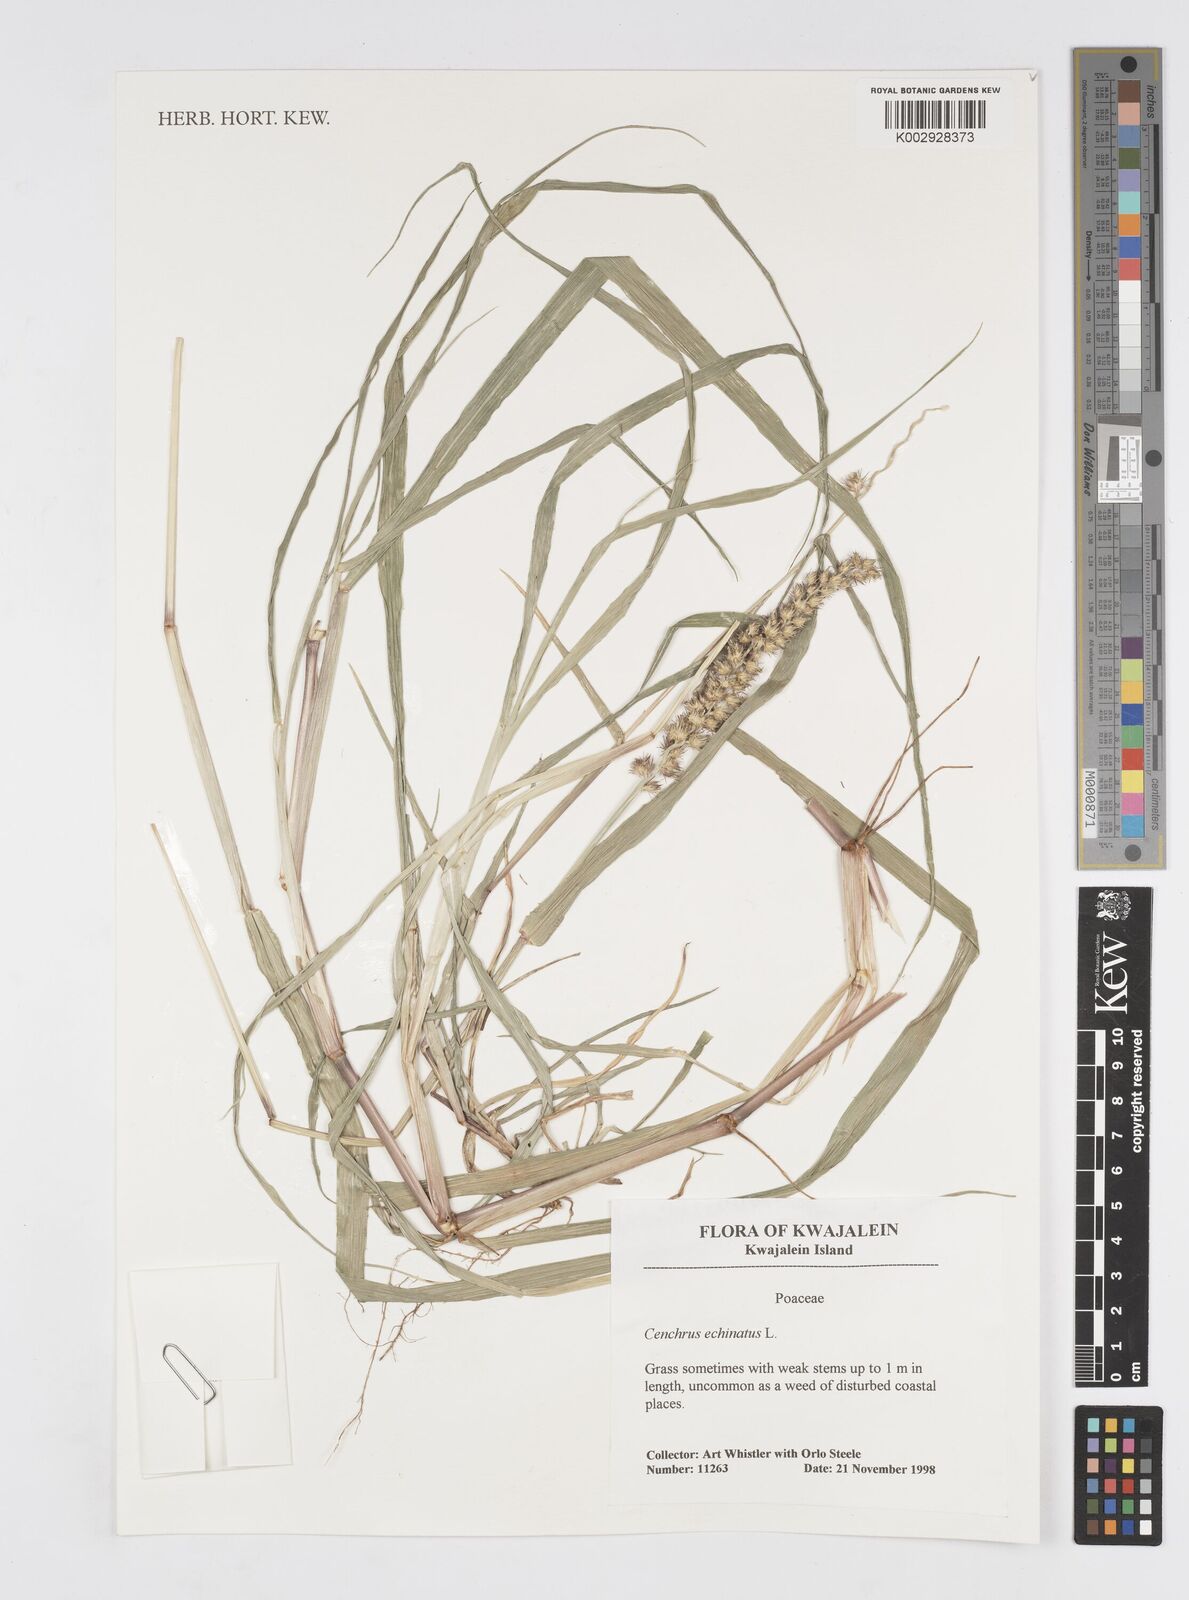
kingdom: Plantae
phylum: Tracheophyta
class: Liliopsida
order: Poales
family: Poaceae
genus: Cenchrus
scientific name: Cenchrus echinatus
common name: Southern sandbur
